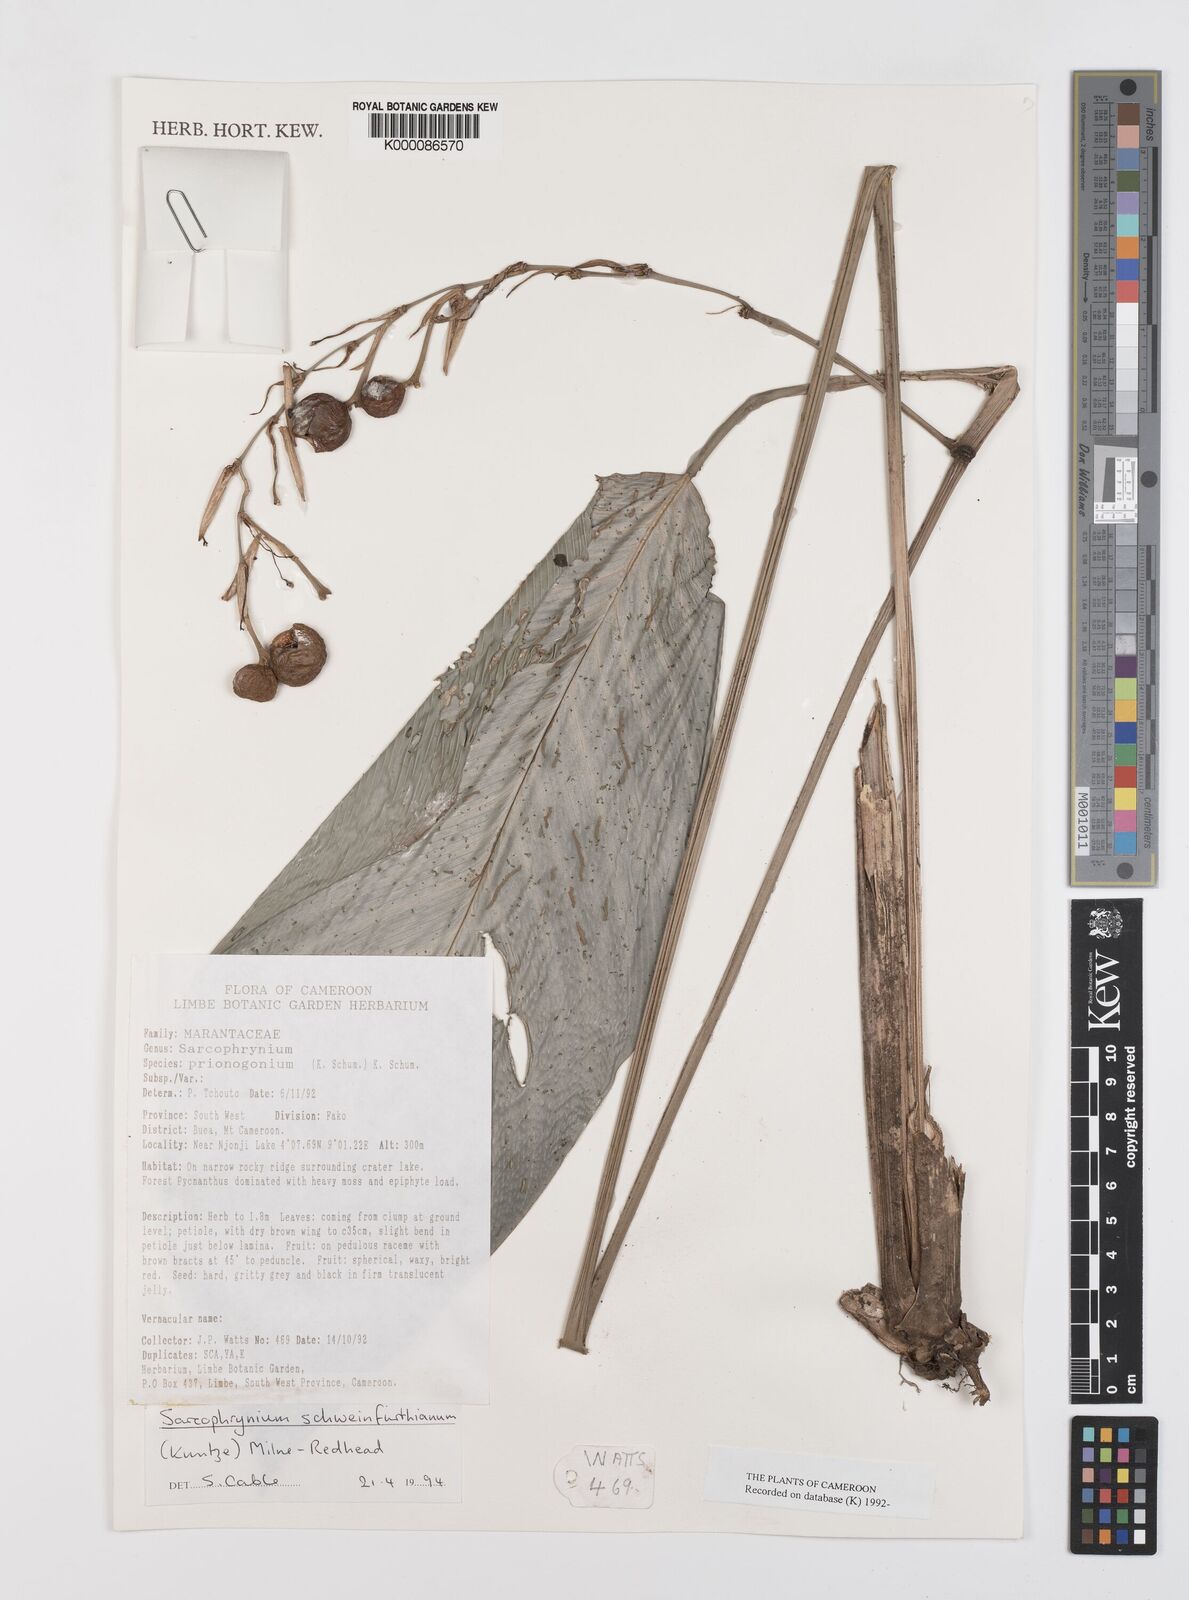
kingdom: Plantae
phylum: Tracheophyta
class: Liliopsida
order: Zingiberales
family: Marantaceae
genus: Sarcophrynium
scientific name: Sarcophrynium schweinfurthianum
